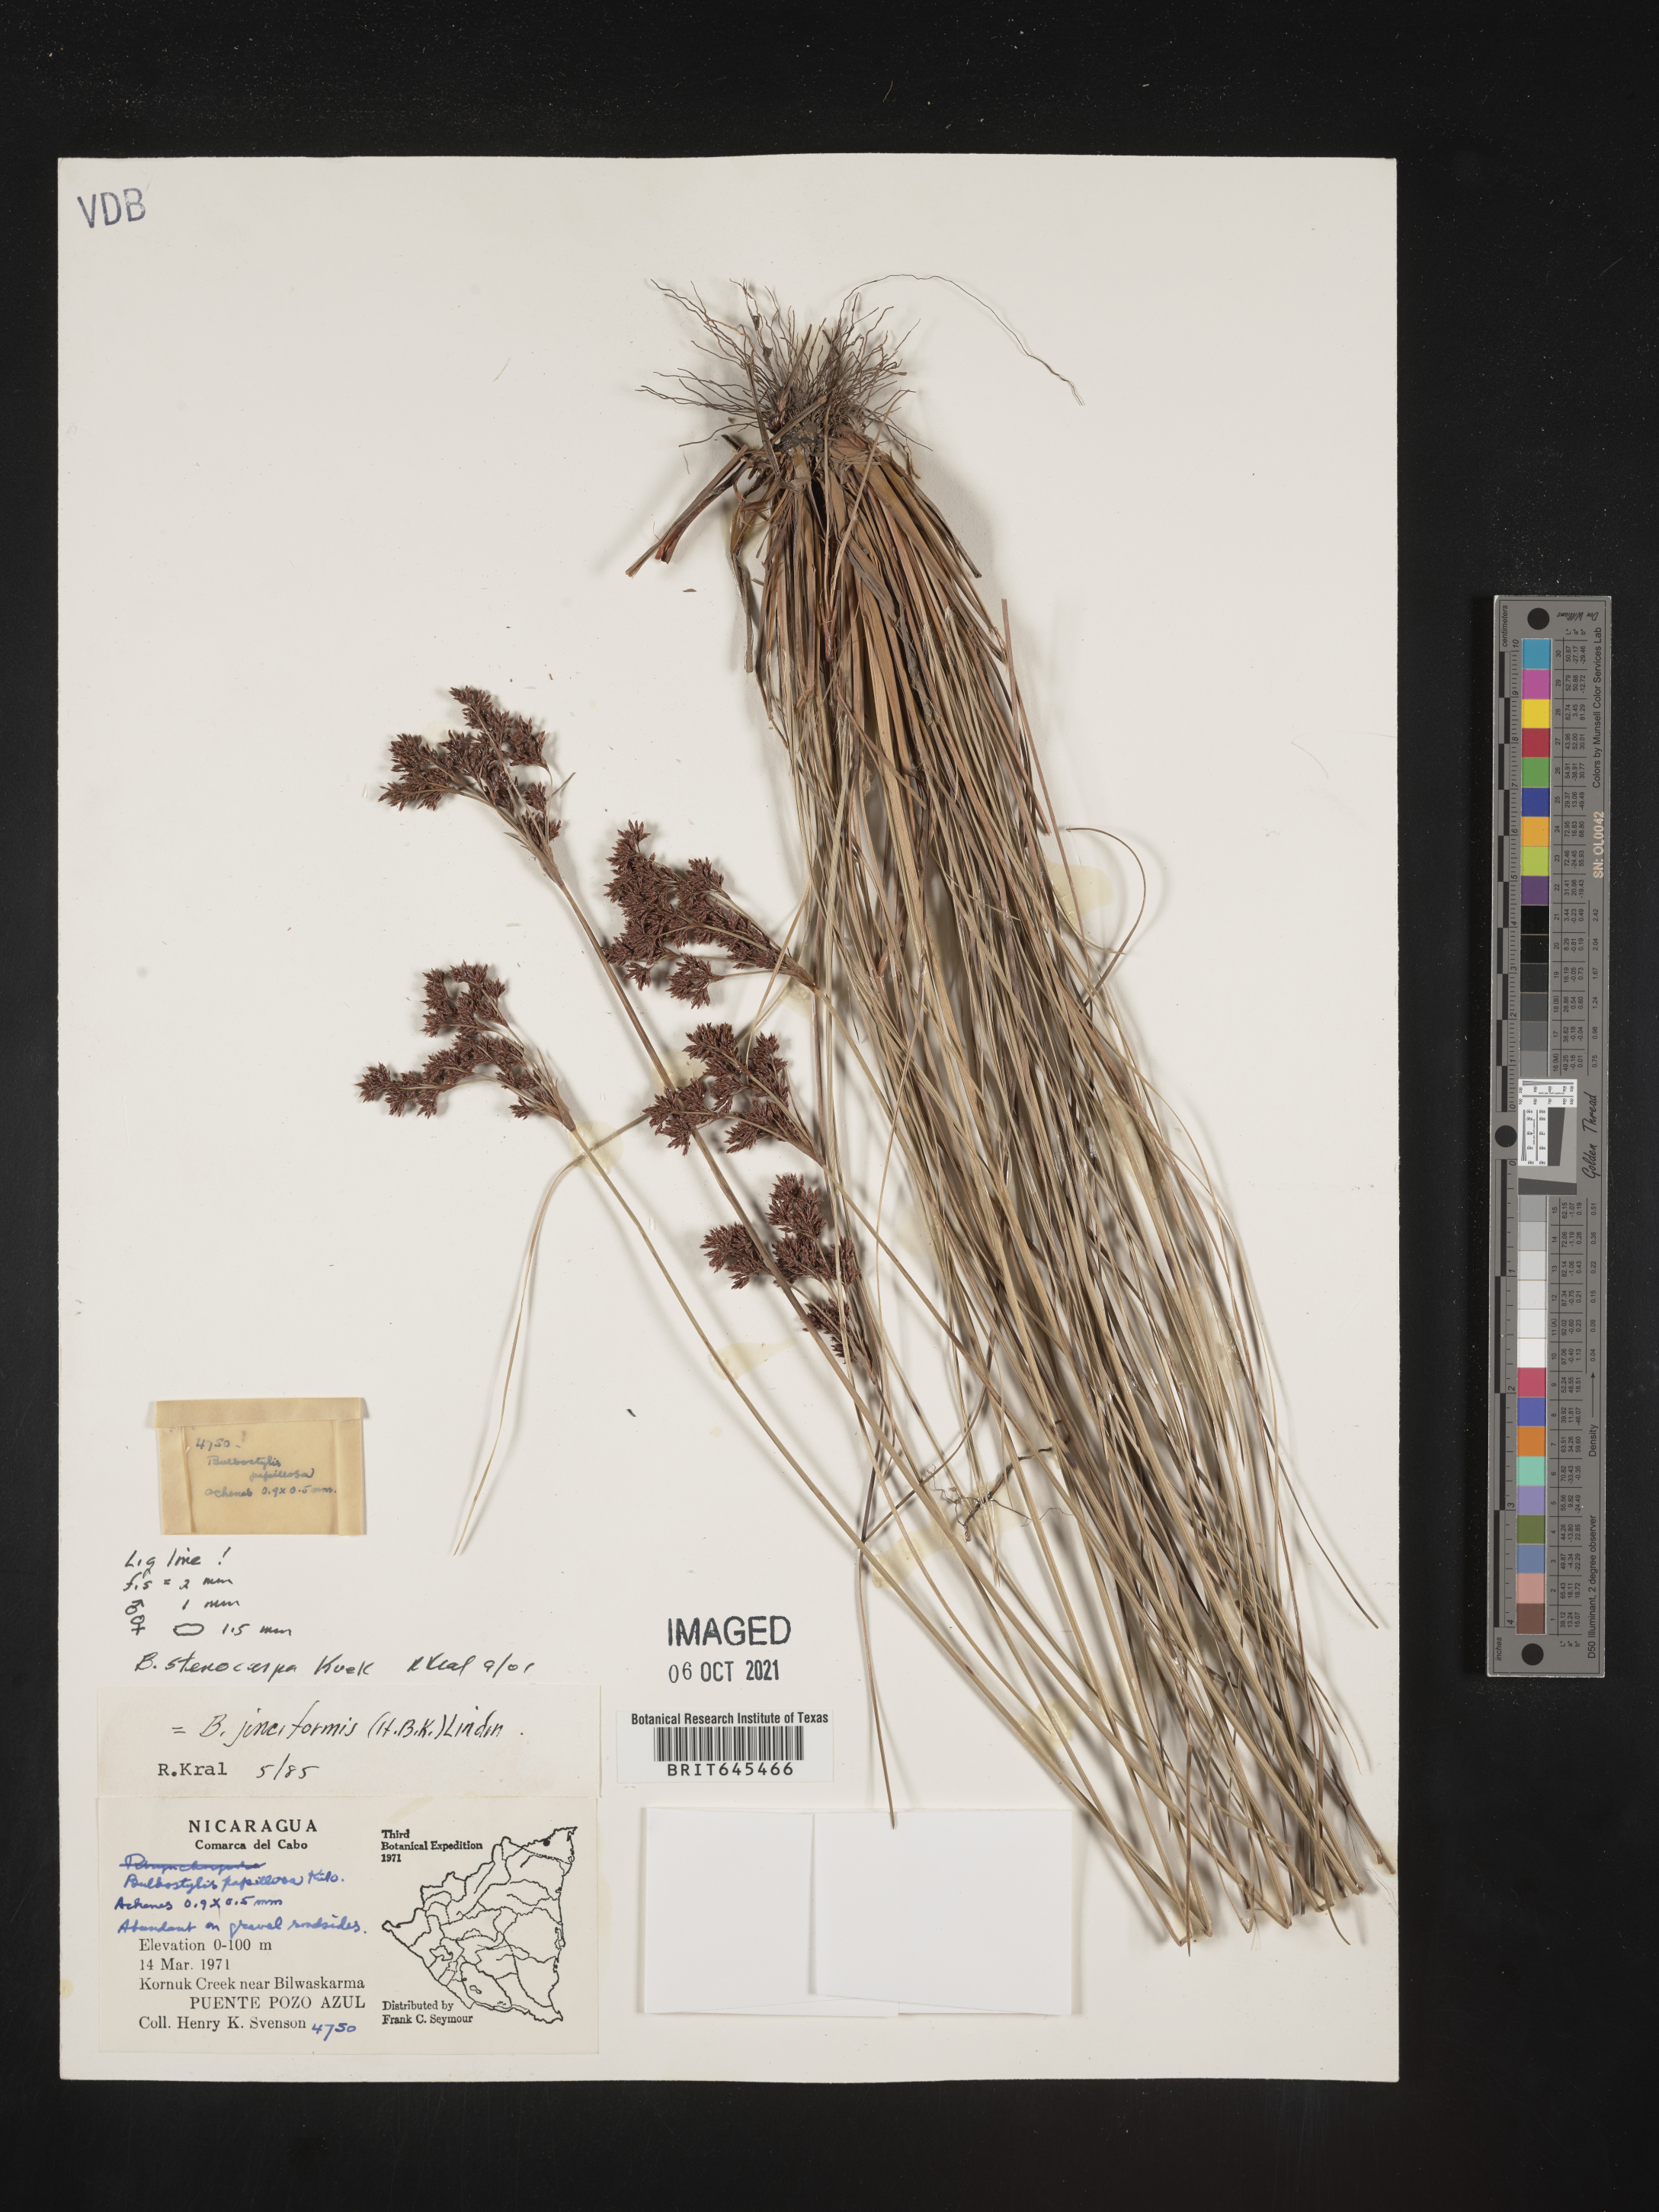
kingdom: Plantae
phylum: Tracheophyta
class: Liliopsida
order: Poales
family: Cyperaceae
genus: Bulbostylis
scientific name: Bulbostylis stenocarpa
